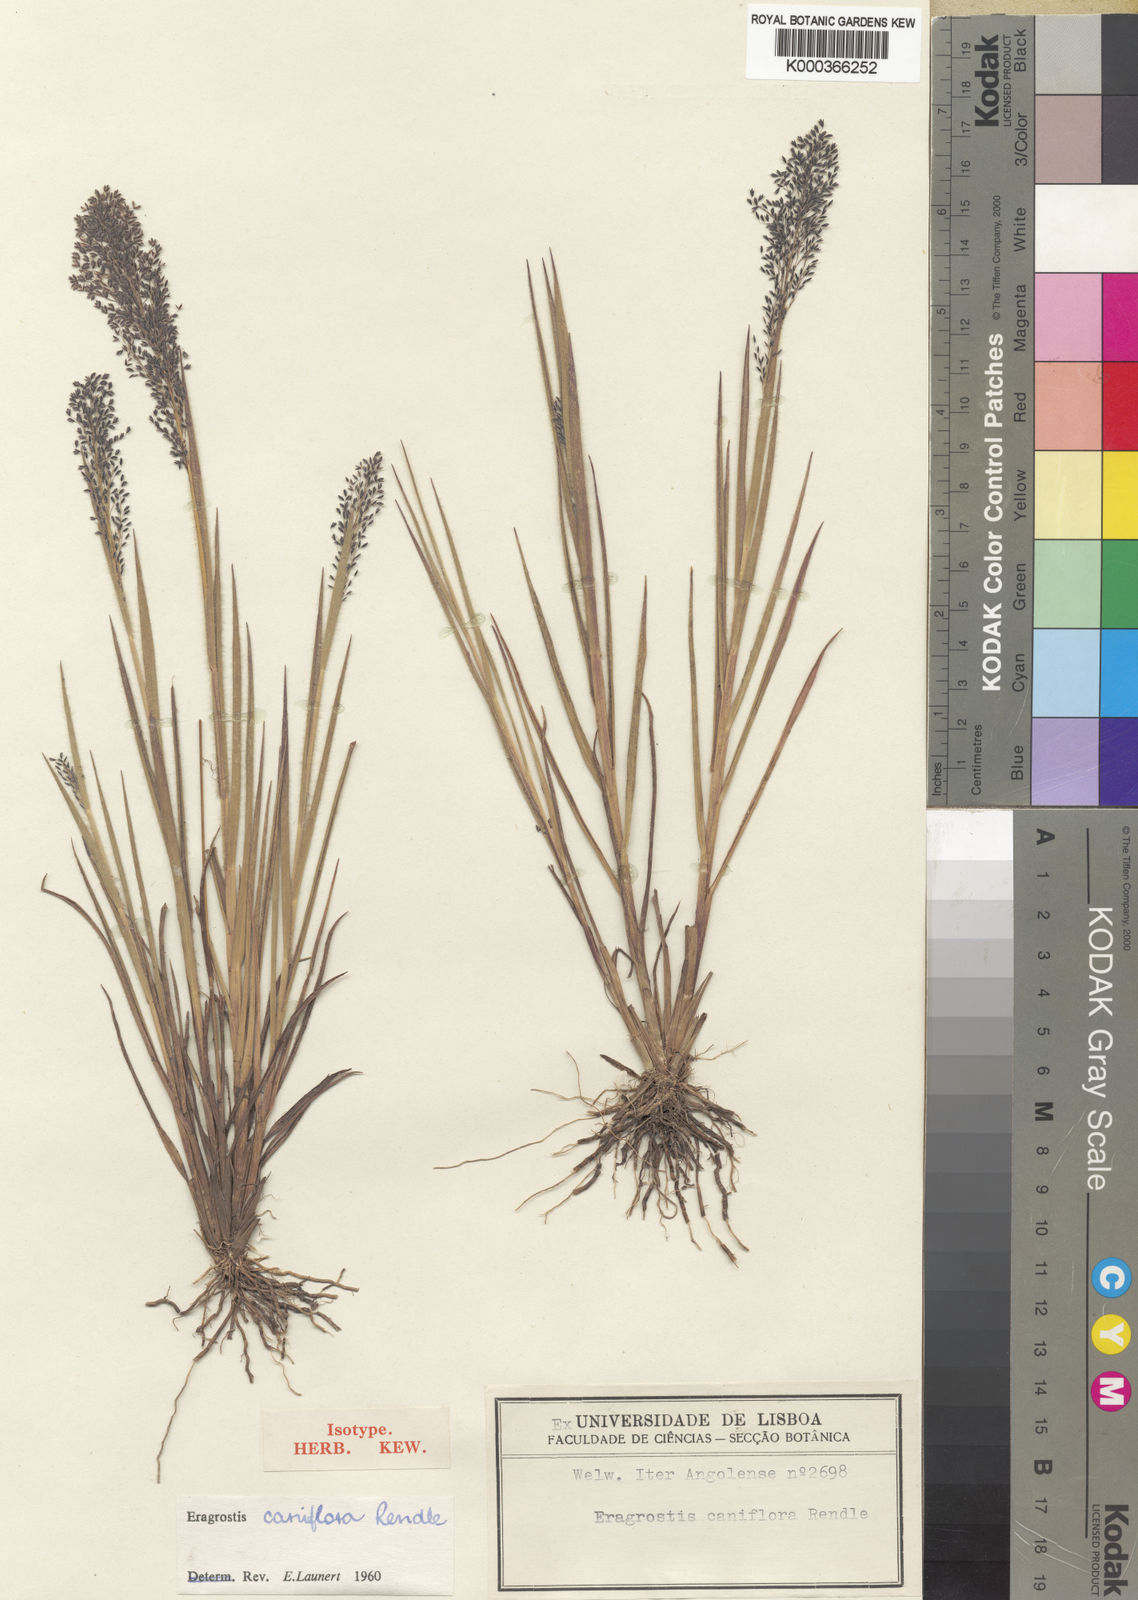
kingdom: Plantae
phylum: Tracheophyta
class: Liliopsida
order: Poales
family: Poaceae
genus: Eragrostis
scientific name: Eragrostis caniflora
